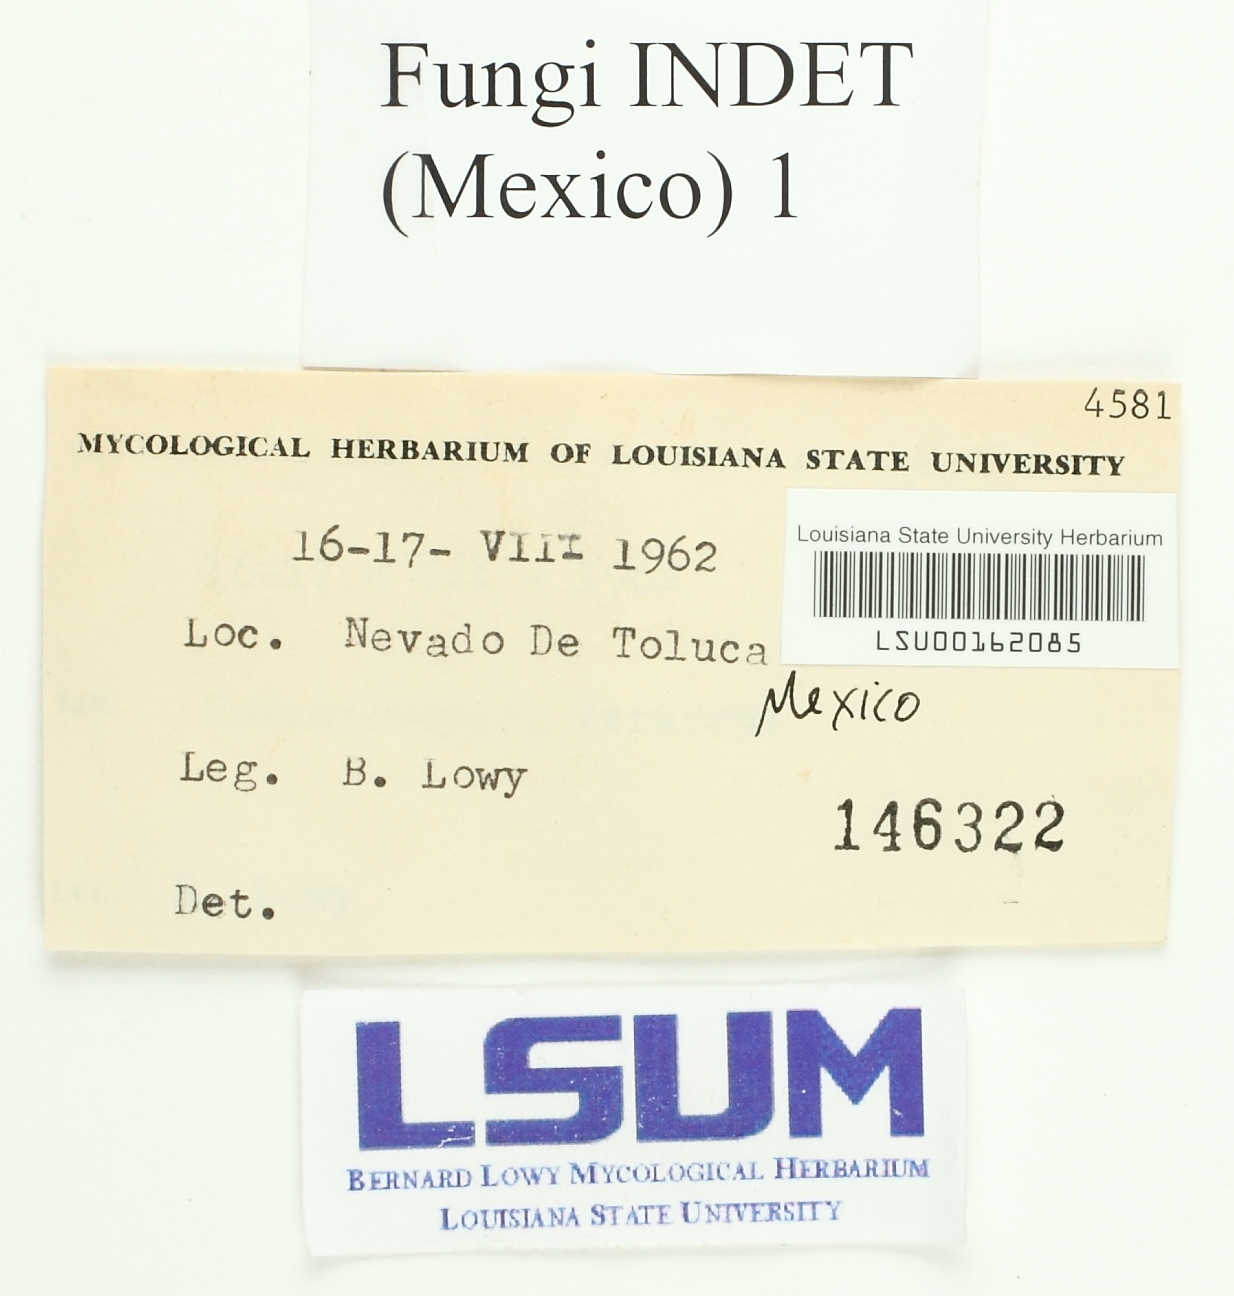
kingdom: Fungi
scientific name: Fungi
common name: Fungi
